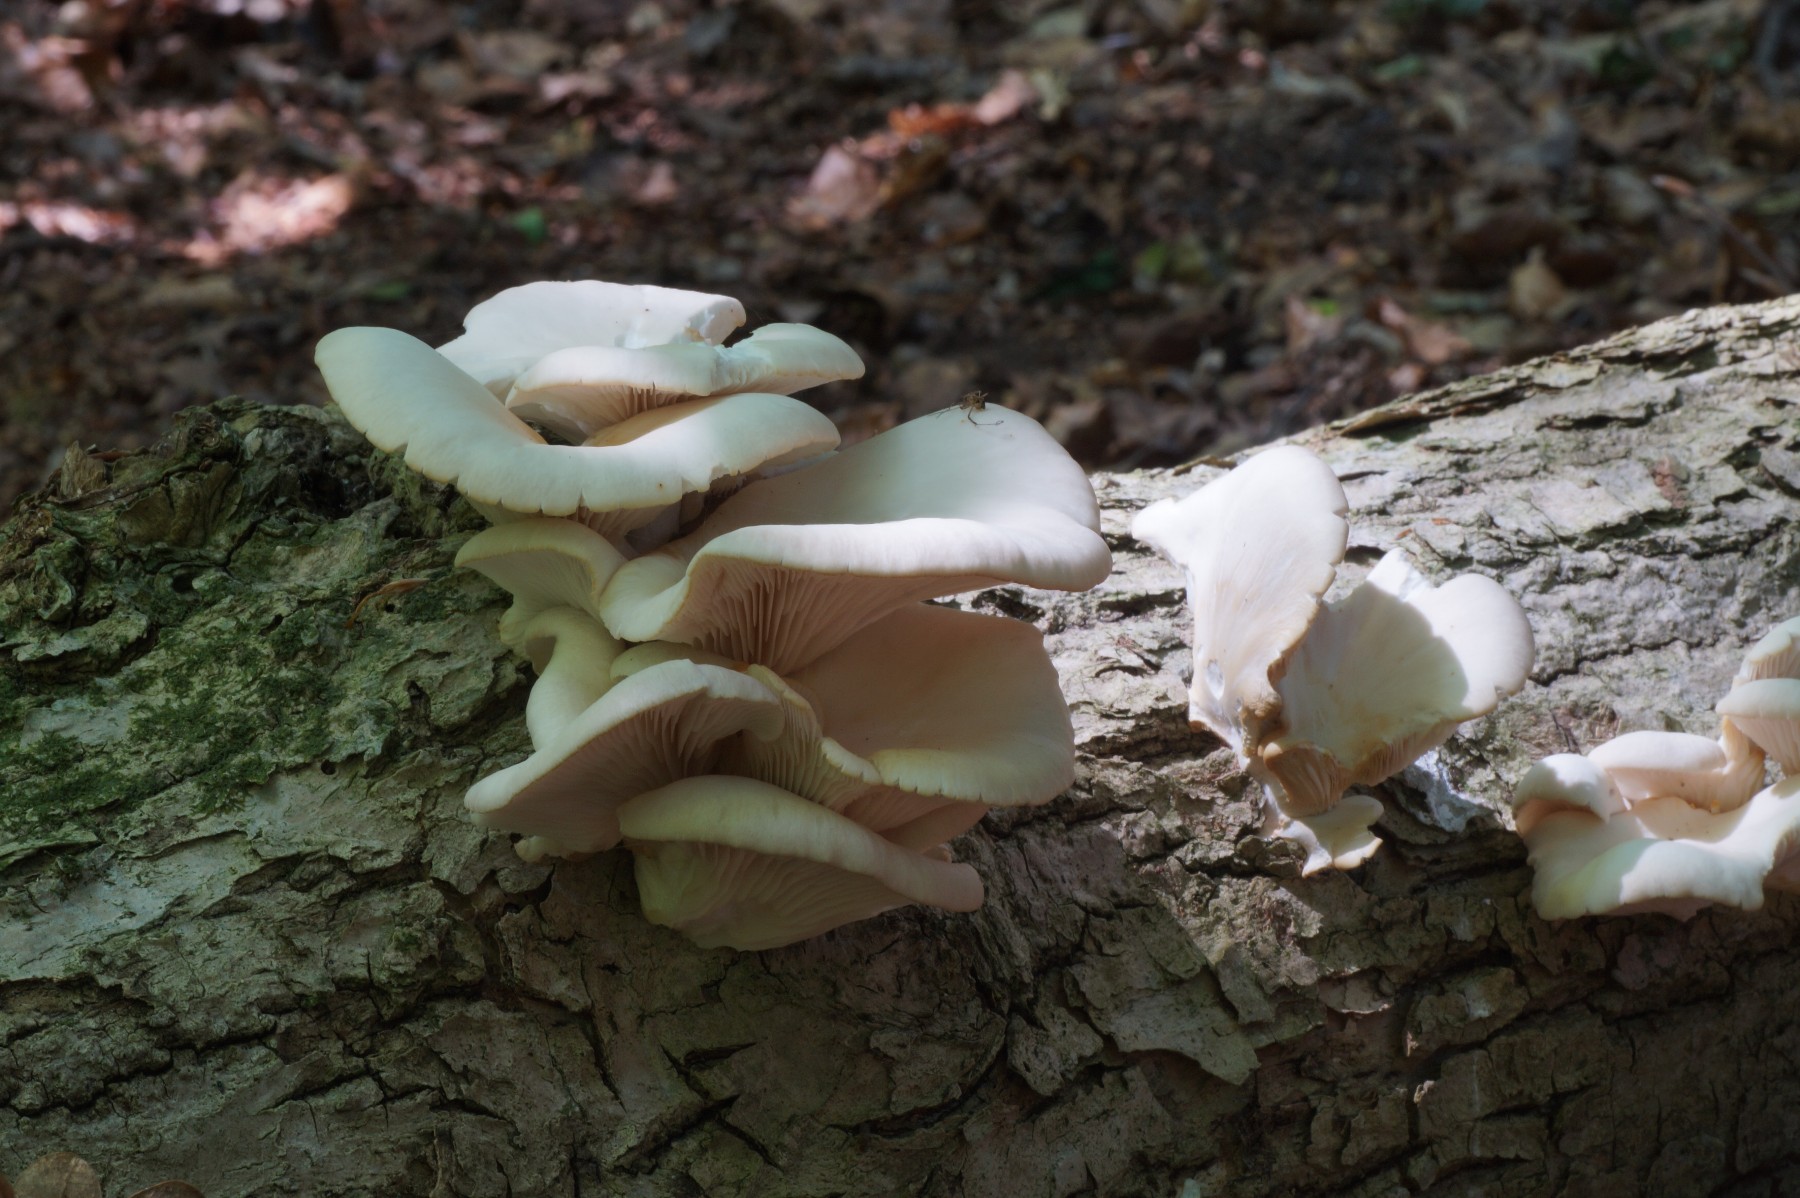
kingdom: Fungi
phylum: Basidiomycota
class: Agaricomycetes
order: Agaricales
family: Pleurotaceae
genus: Pleurotus
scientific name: Pleurotus pulmonarius
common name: sommer-østershat
